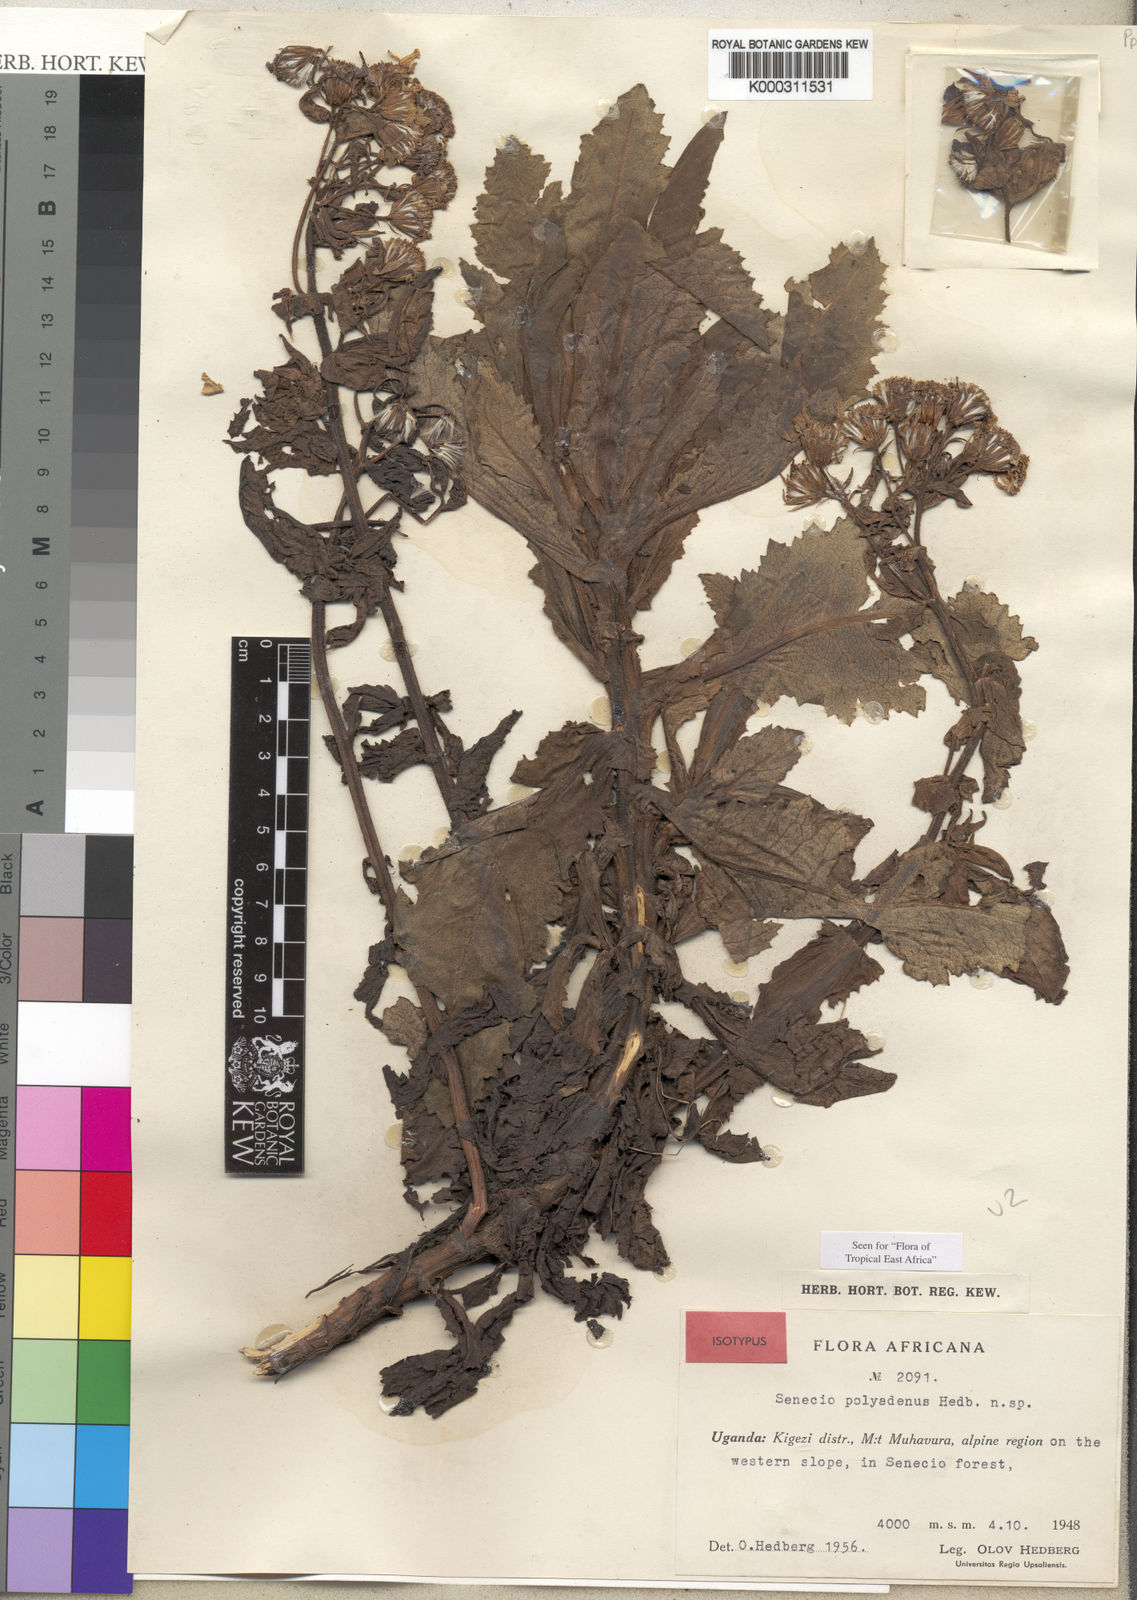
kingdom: Plantae
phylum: Tracheophyta
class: Magnoliopsida
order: Asterales
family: Asteraceae
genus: Senecio
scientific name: Senecio polyadenus
